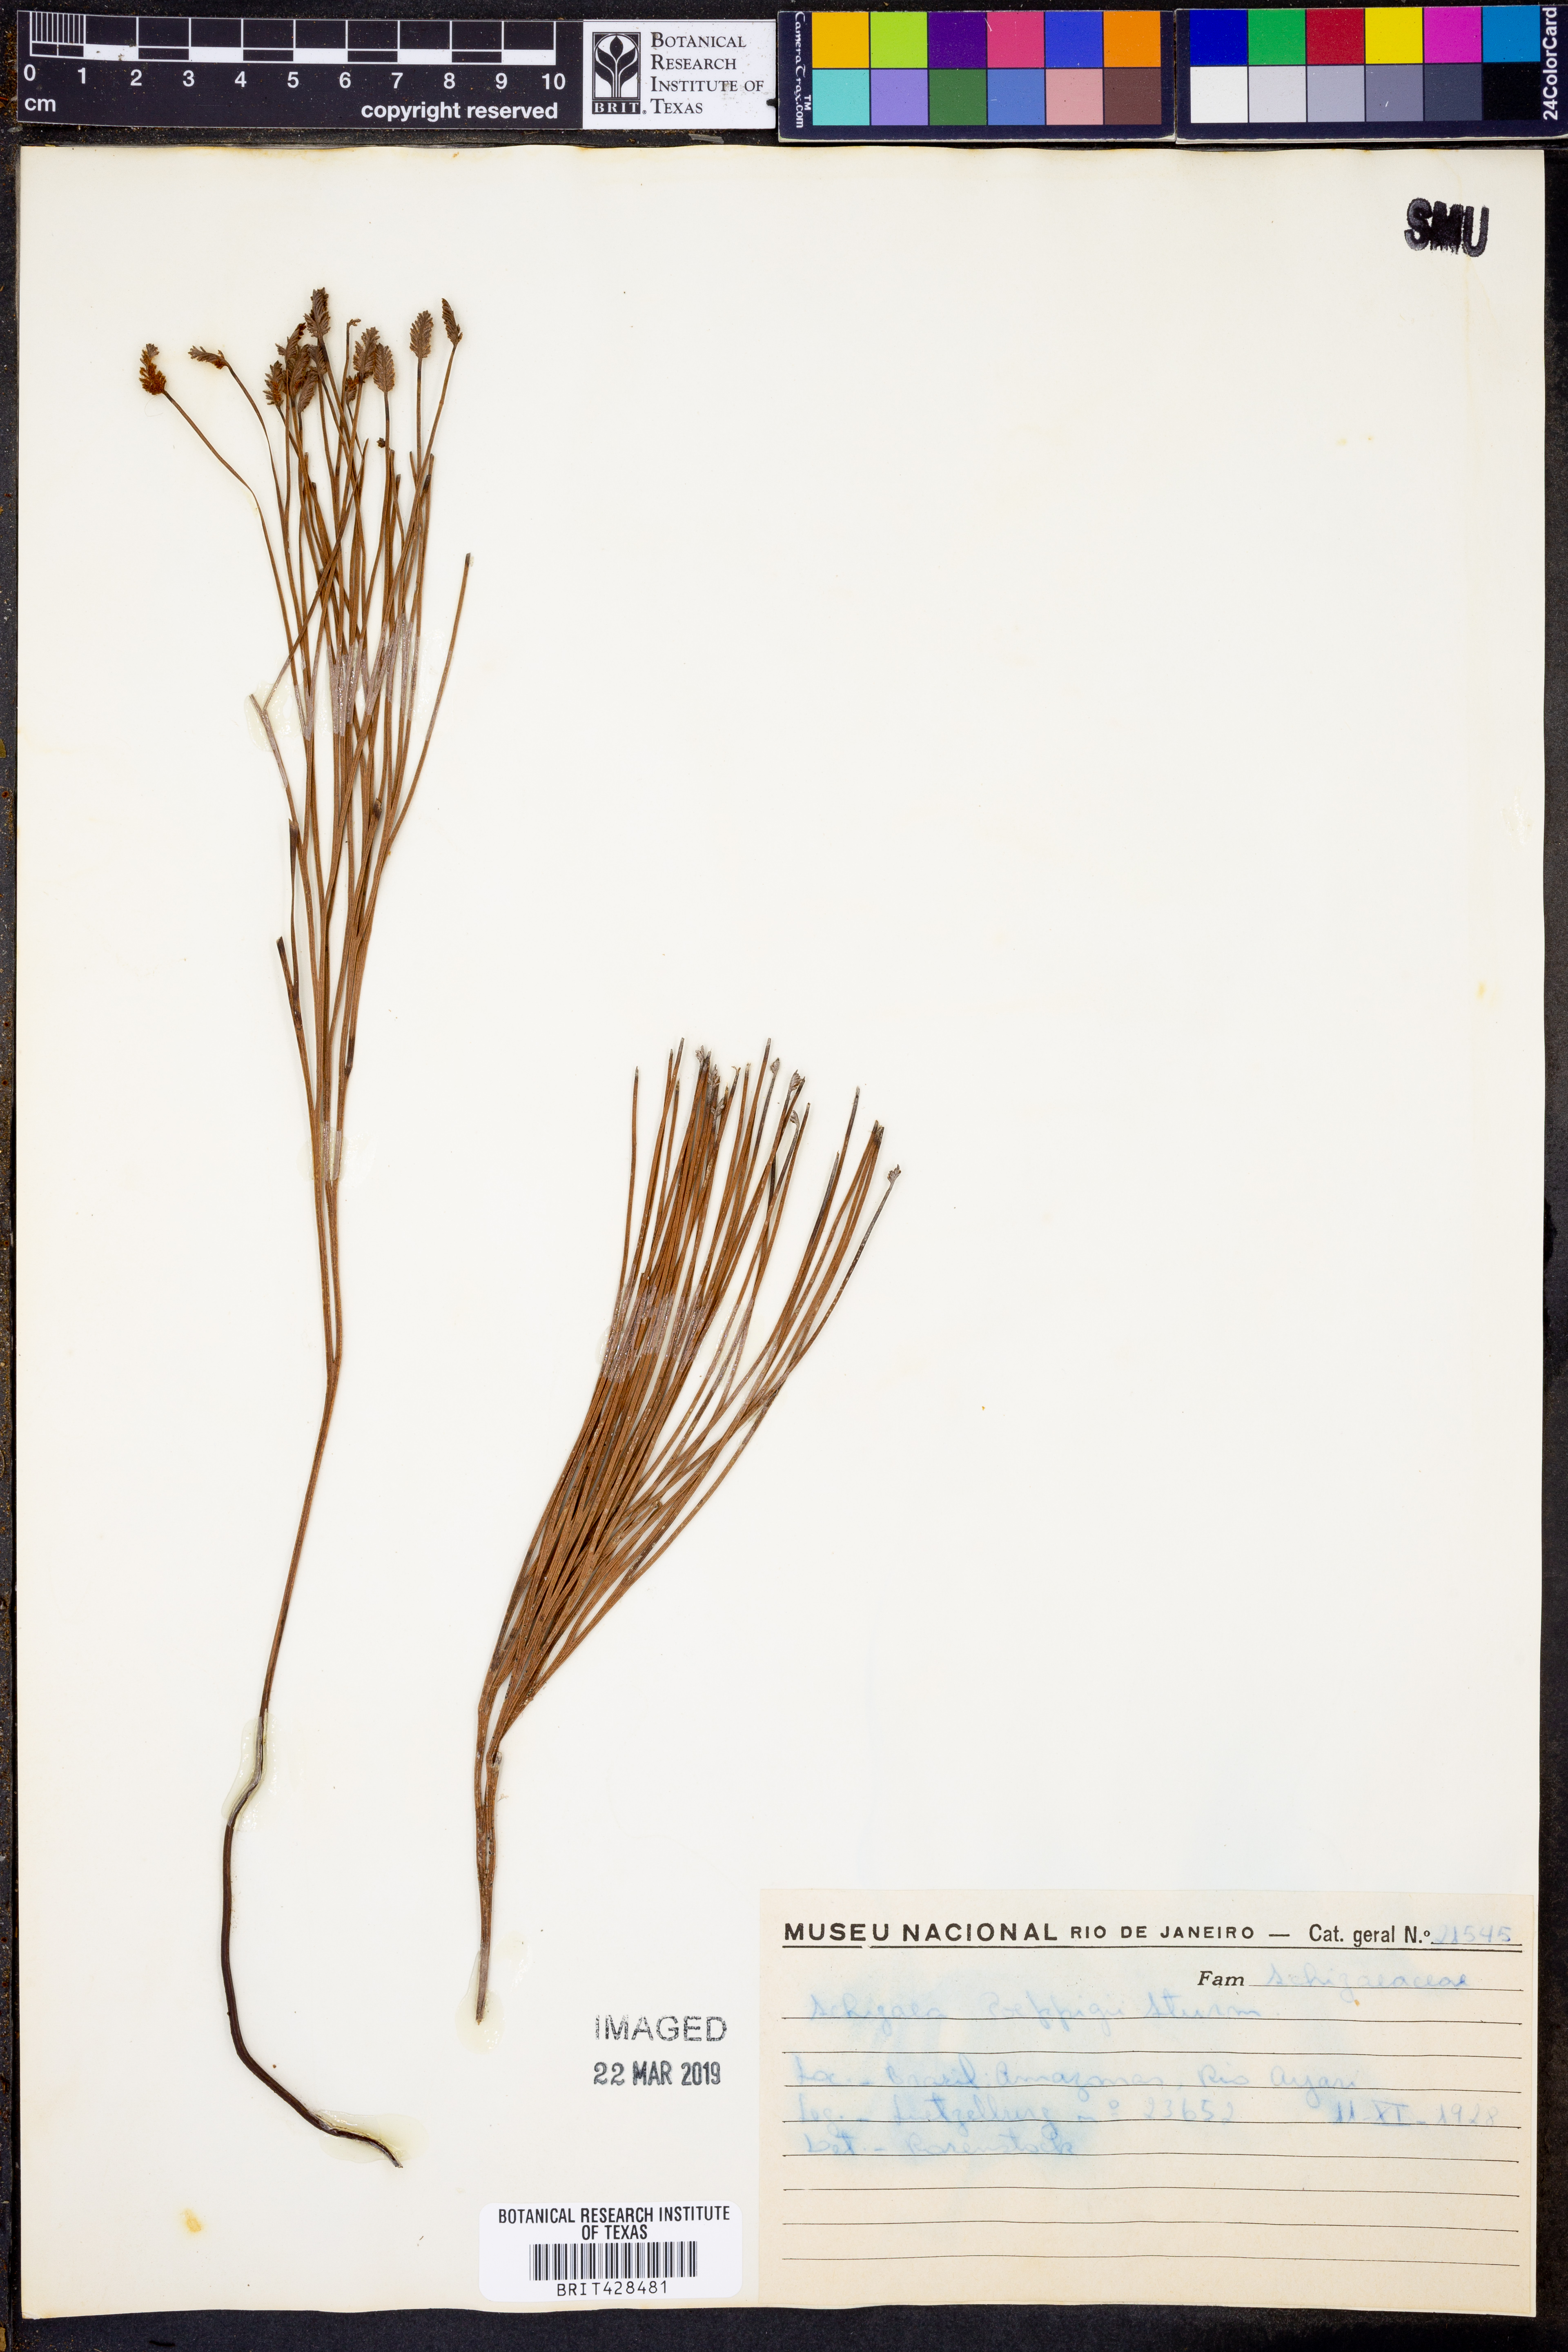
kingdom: Plantae
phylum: Tracheophyta
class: Polypodiopsida
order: Schizaeales
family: Schizaeaceae
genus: Schizaea
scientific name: Schizaea poeppigiana
